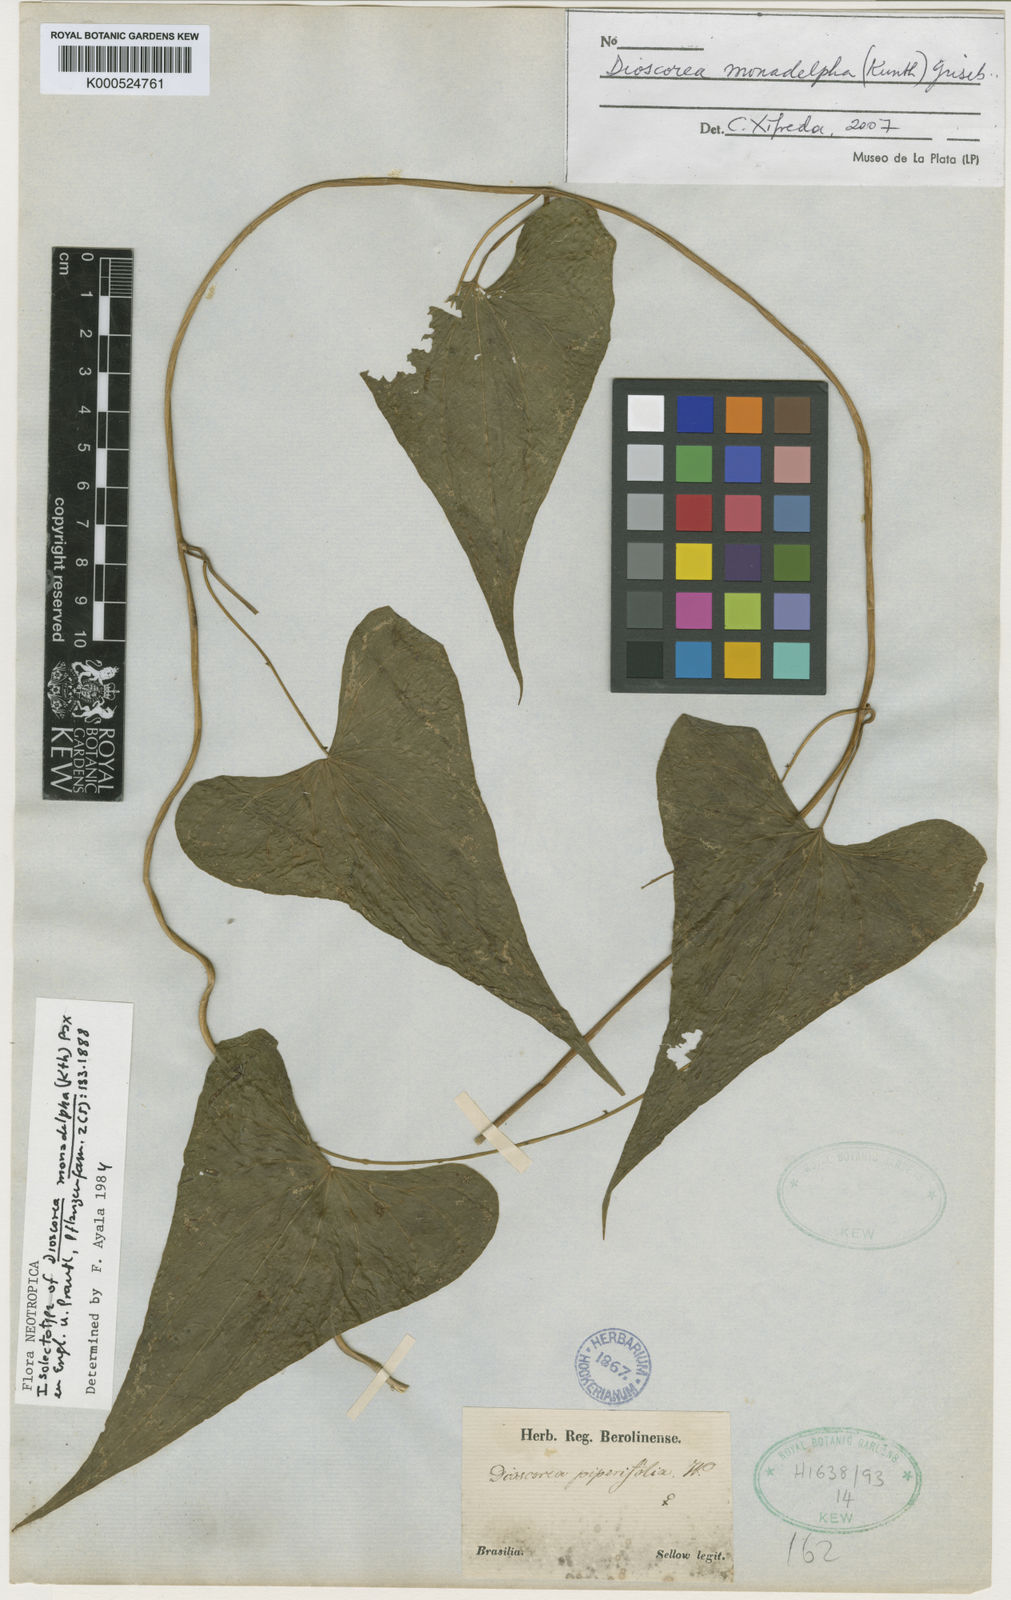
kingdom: Plantae
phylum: Tracheophyta
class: Liliopsida
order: Dioscoreales
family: Dioscoreaceae
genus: Dioscorea
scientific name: Dioscorea monadelpha
